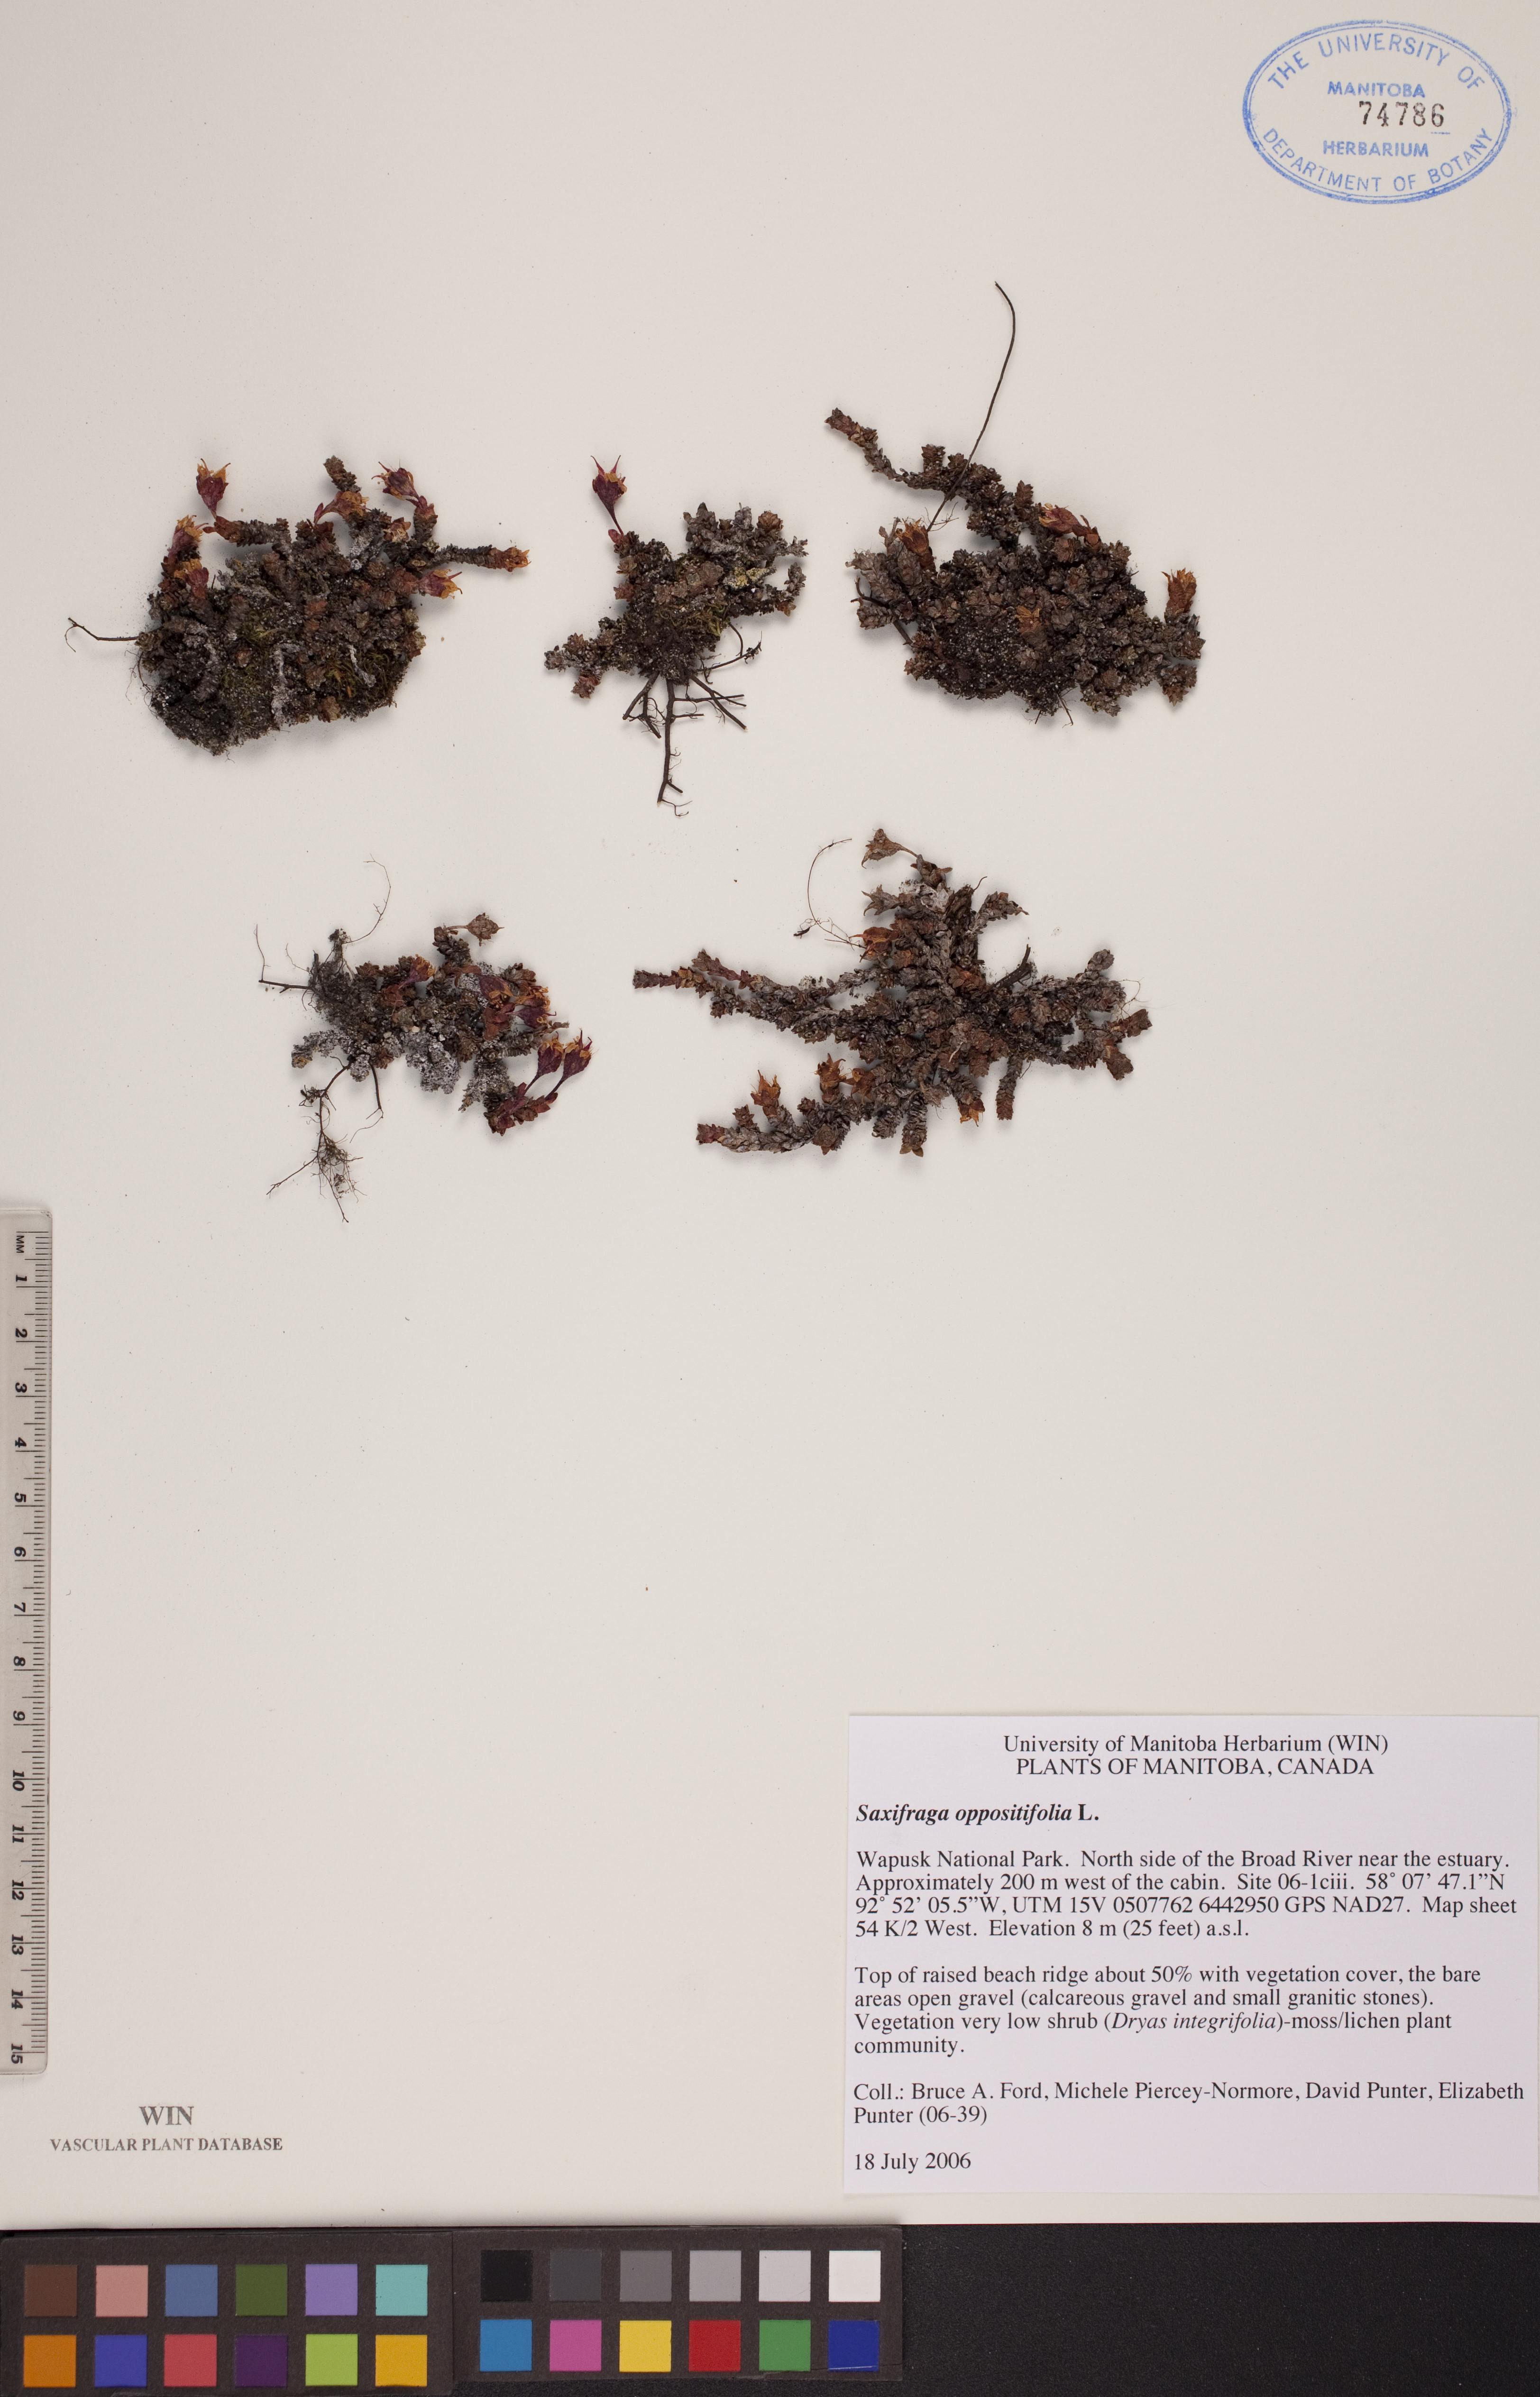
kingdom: Plantae
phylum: Tracheophyta
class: Magnoliopsida
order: Saxifragales
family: Saxifragaceae
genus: Saxifraga
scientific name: Saxifraga oppositifolia
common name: Purple saxifrage
